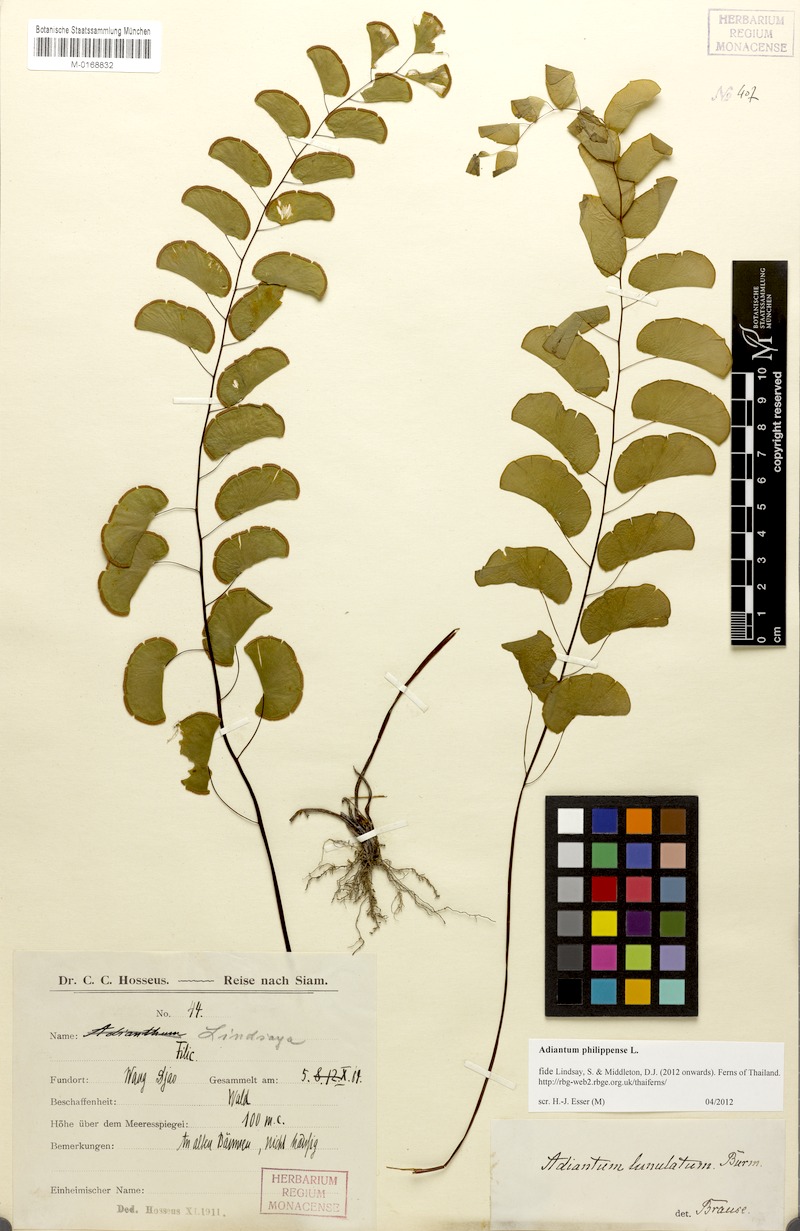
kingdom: Plantae
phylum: Tracheophyta
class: Polypodiopsida
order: Polypodiales
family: Pteridaceae
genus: Adiantum
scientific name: Adiantum philippense
